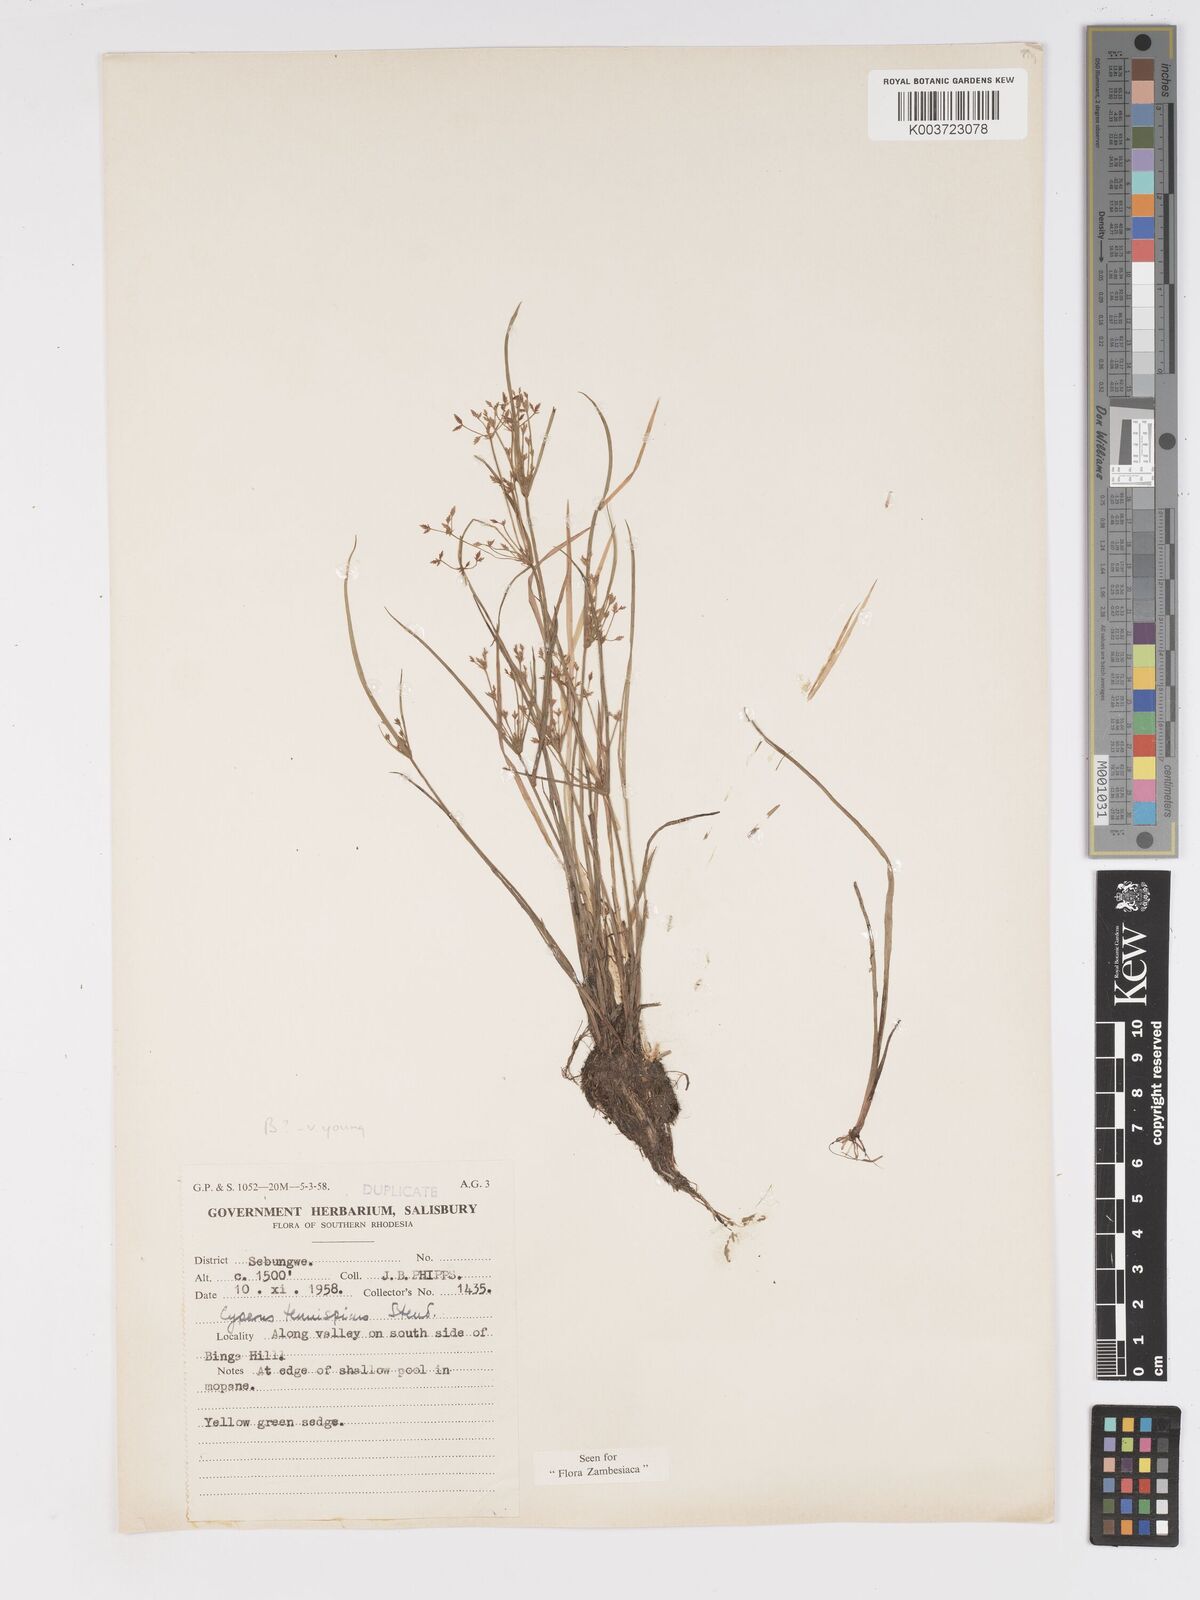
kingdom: Plantae
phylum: Tracheophyta
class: Liliopsida
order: Poales
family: Cyperaceae
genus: Cyperus
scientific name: Cyperus tenuispica
